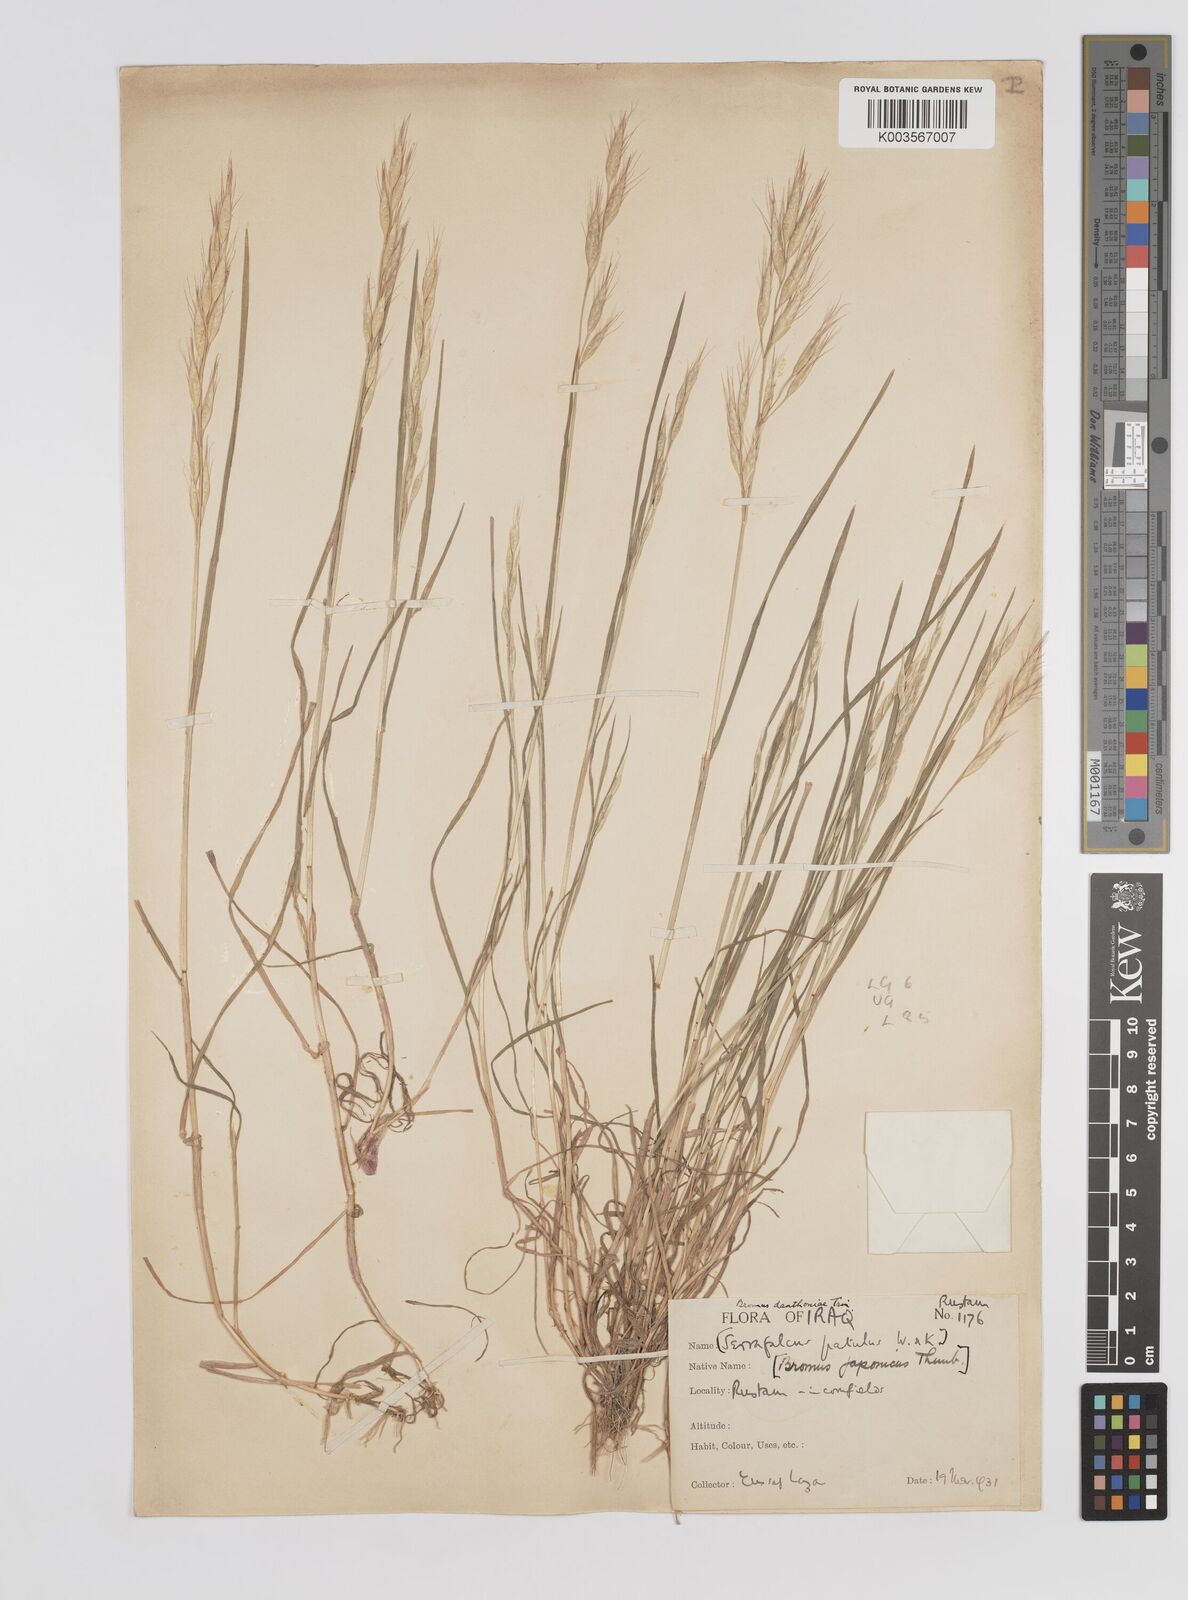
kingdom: Plantae
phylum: Tracheophyta
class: Liliopsida
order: Poales
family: Poaceae
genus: Bromus
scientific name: Bromus danthoniae
